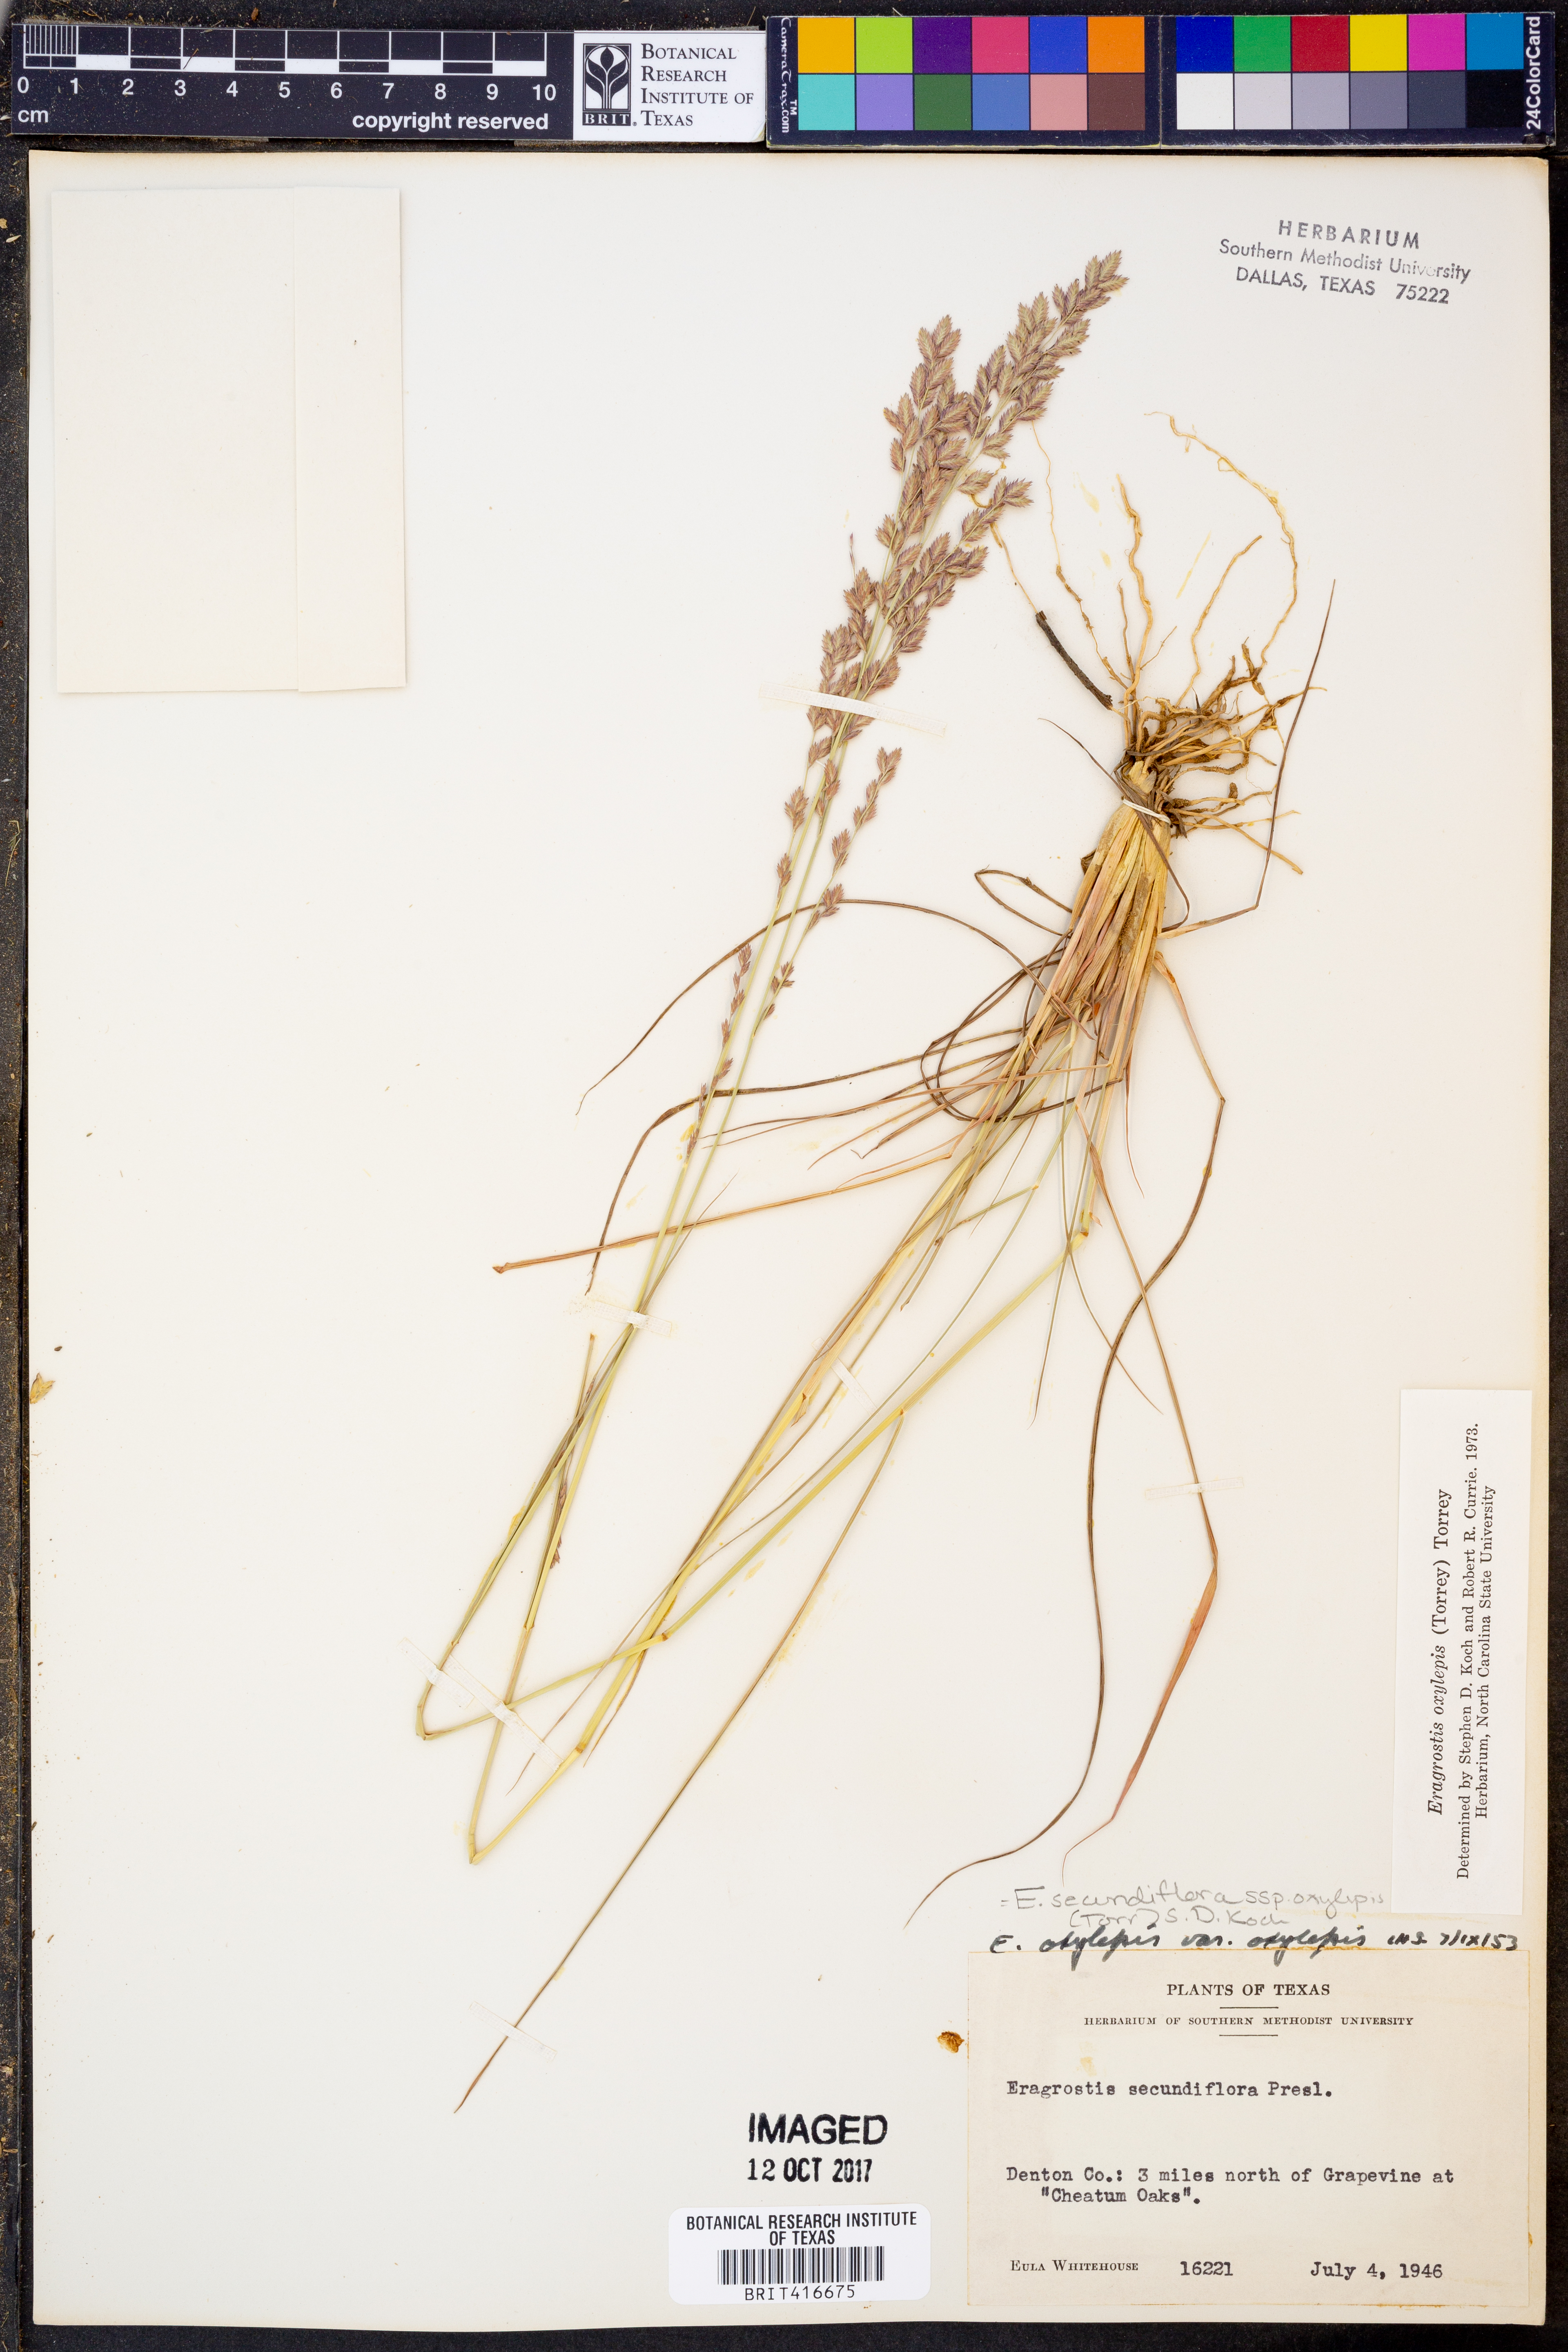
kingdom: Plantae
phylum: Tracheophyta
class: Liliopsida
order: Poales
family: Poaceae
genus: Eragrostis
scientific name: Eragrostis secundiflora
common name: Red love grass
